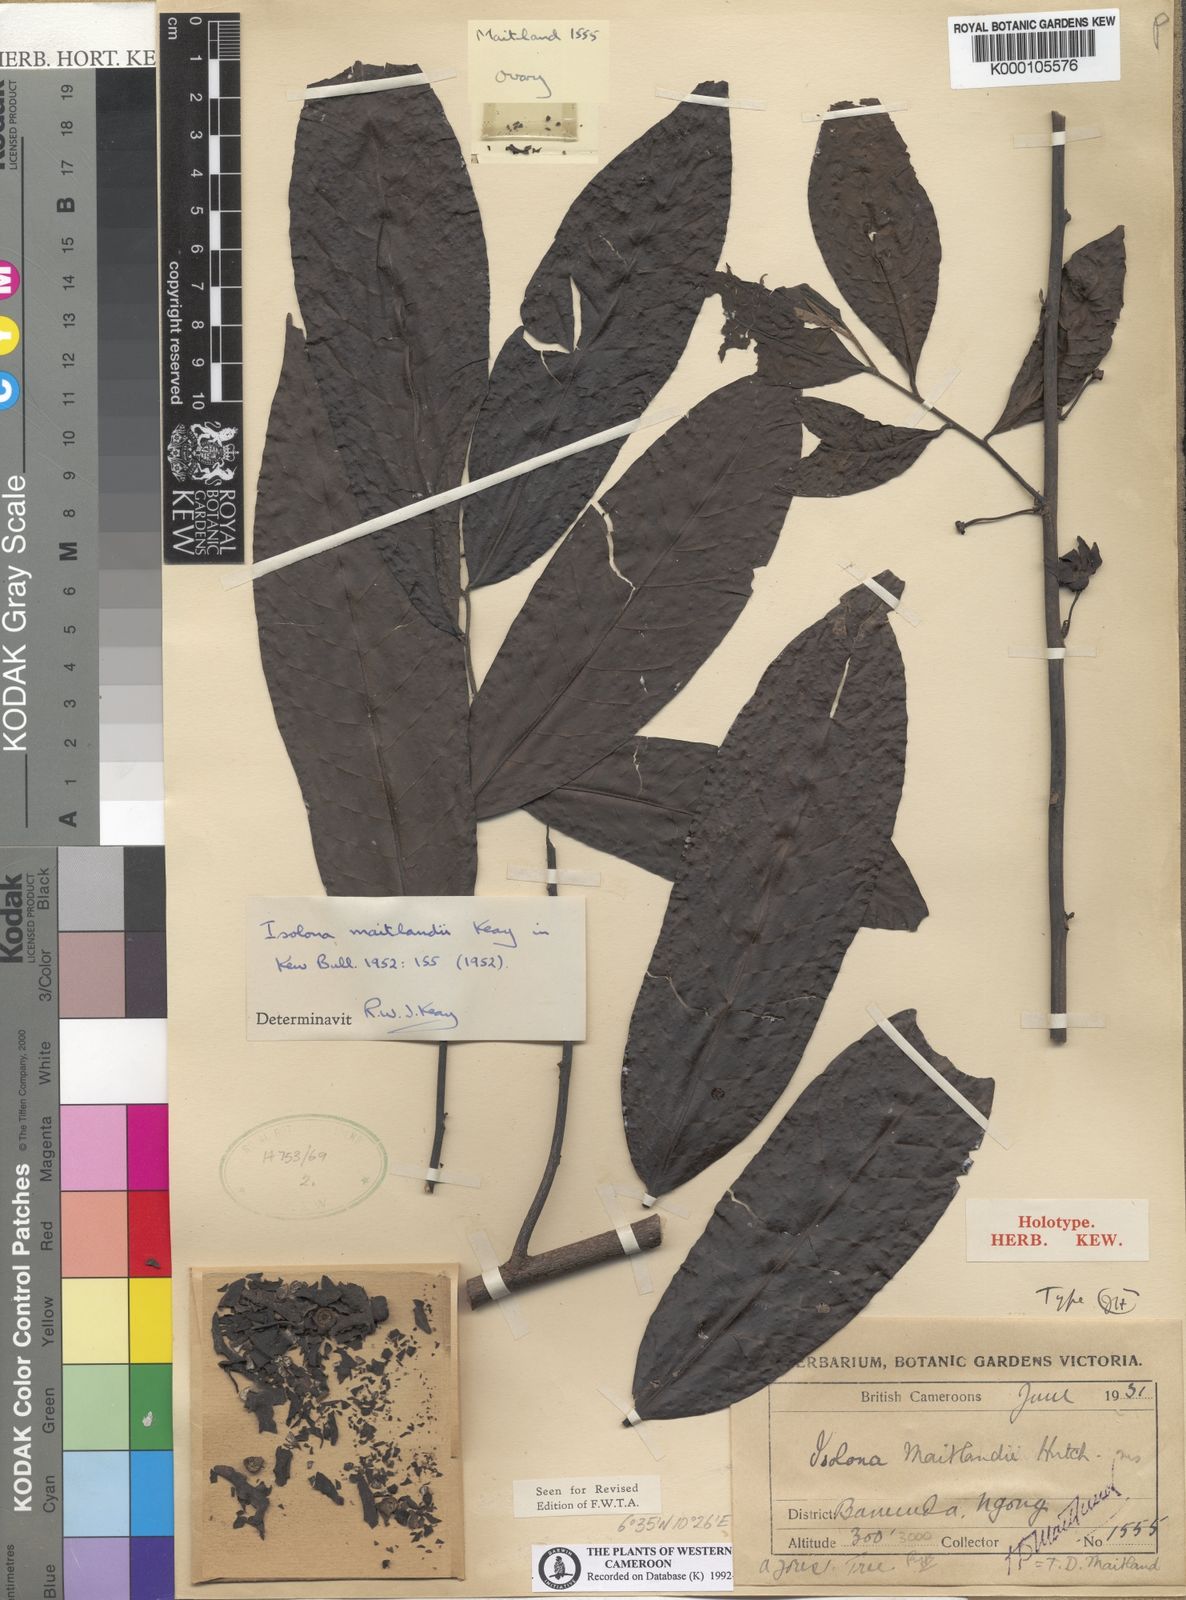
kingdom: Plantae
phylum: Tracheophyta
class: Magnoliopsida
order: Magnoliales
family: Annonaceae
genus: Isolona
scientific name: Isolona congolana
